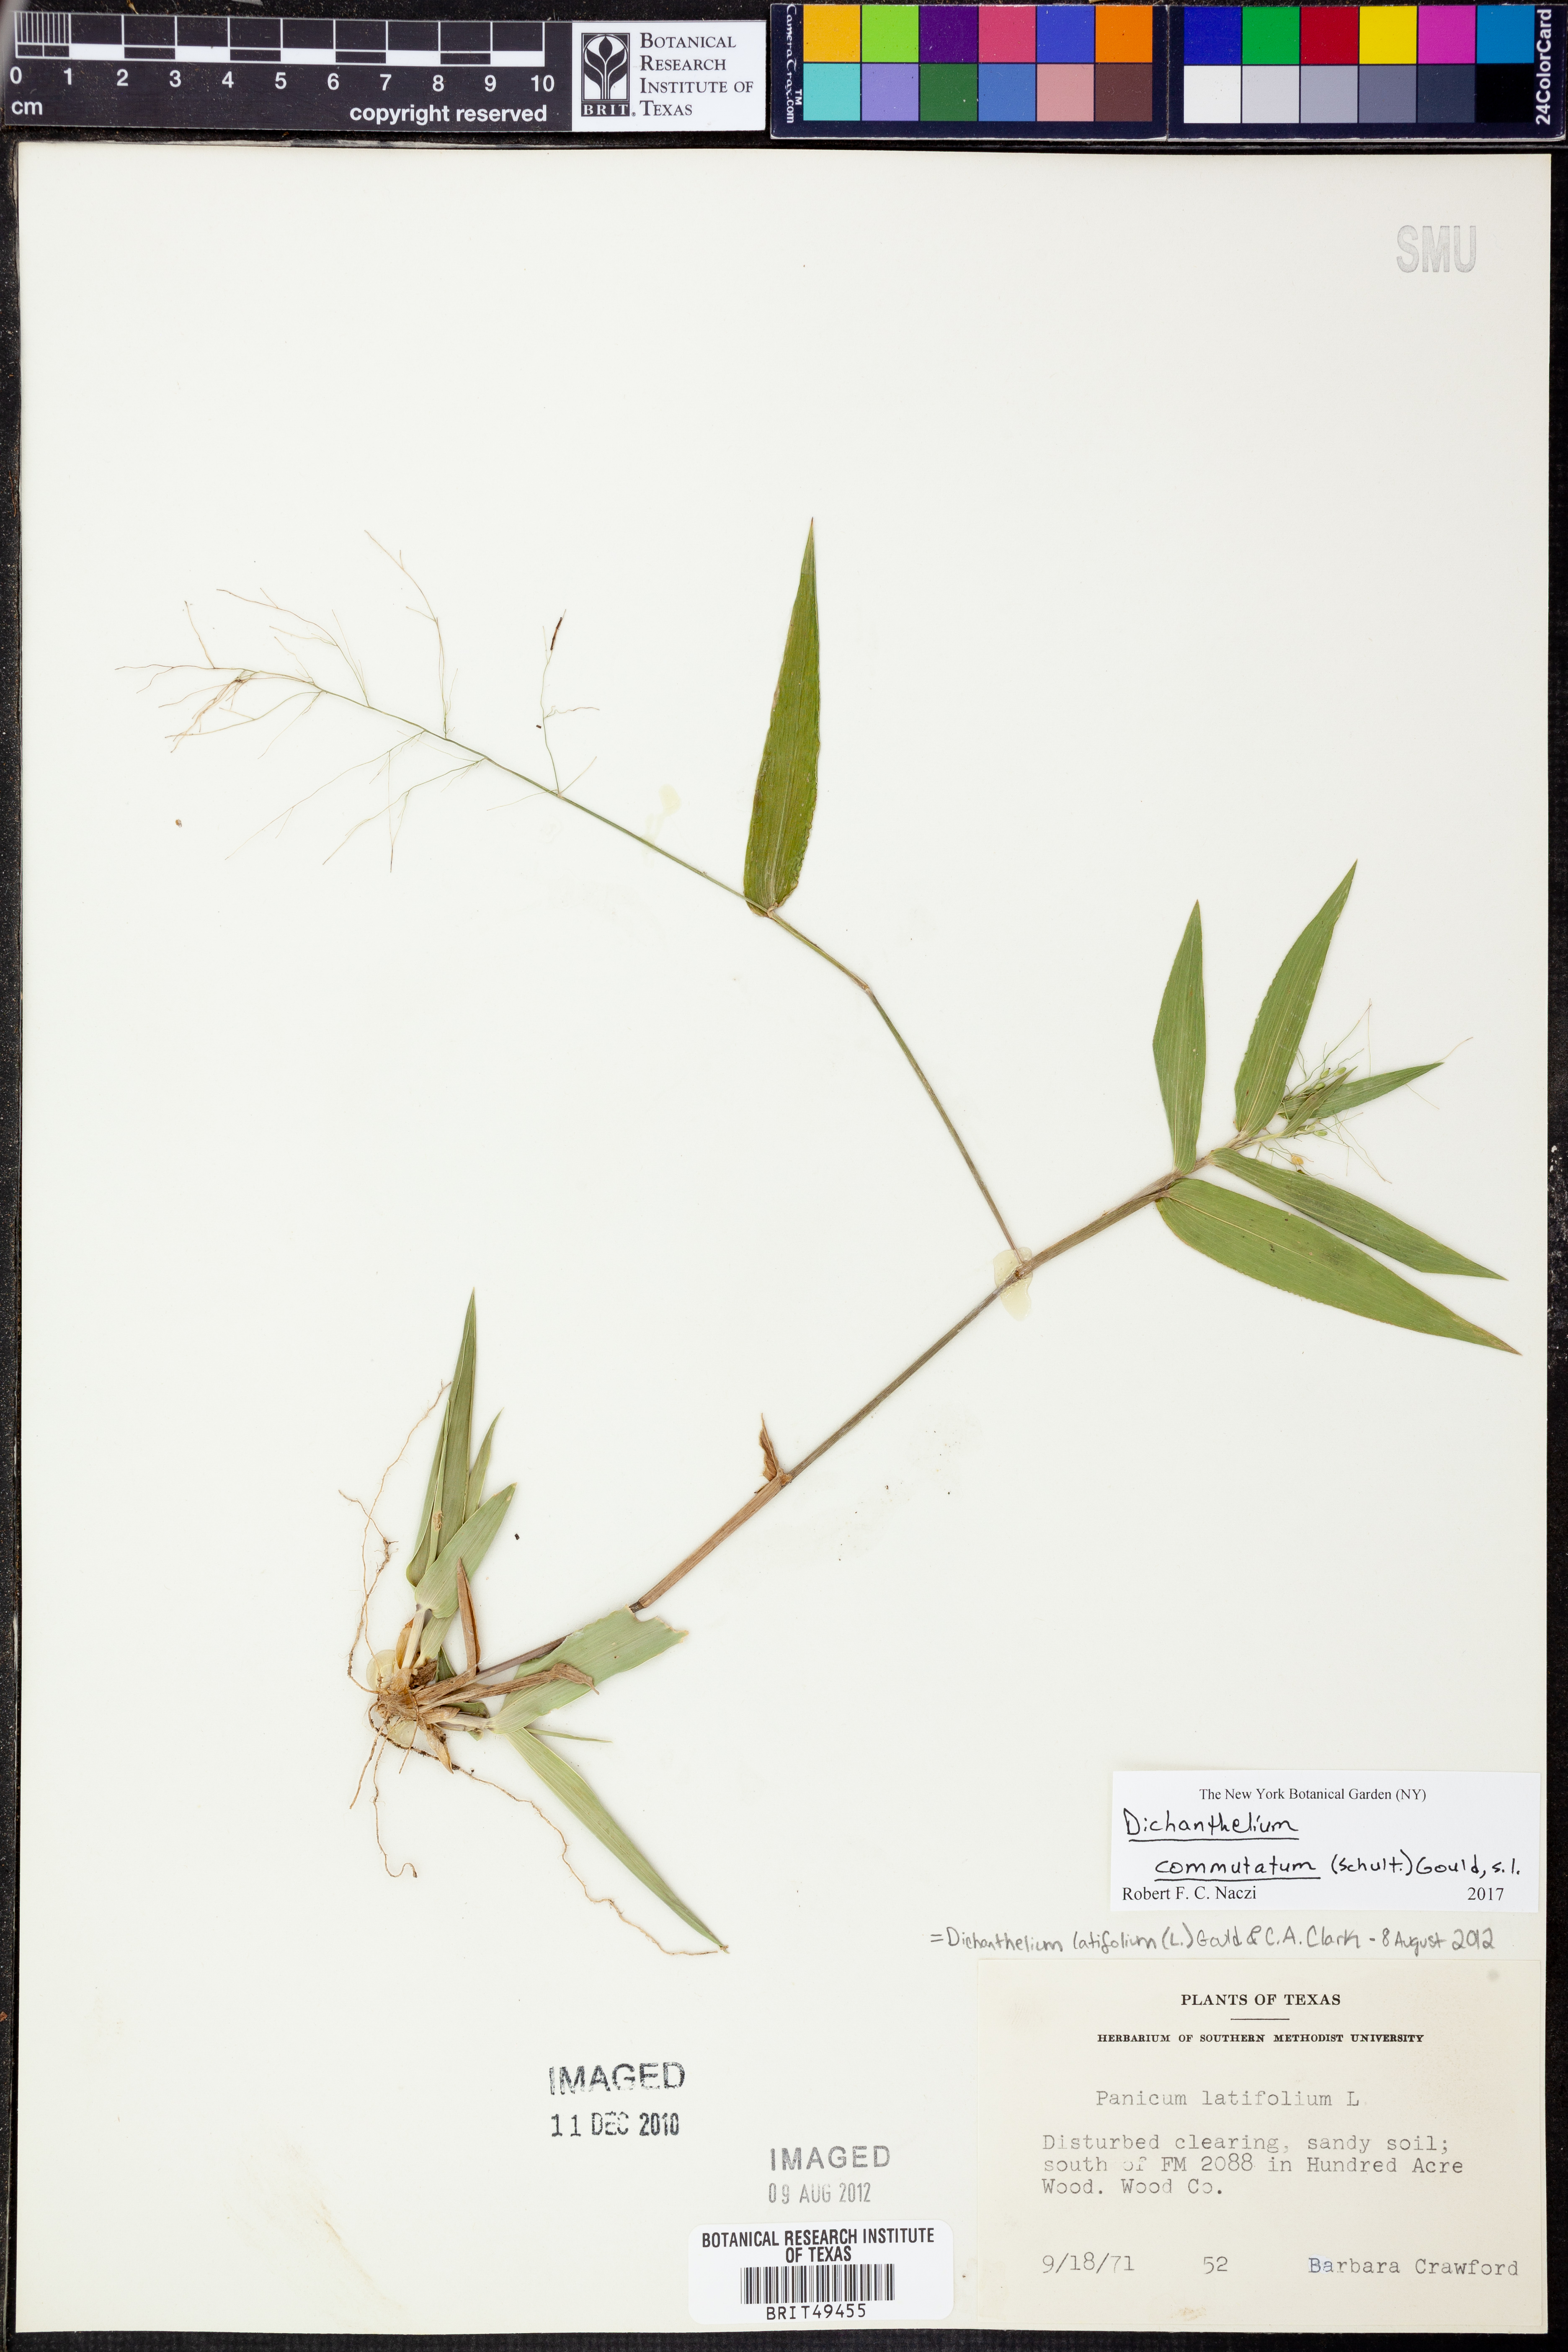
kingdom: Plantae
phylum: Tracheophyta
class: Liliopsida
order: Poales
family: Poaceae
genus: Dichanthelium
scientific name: Dichanthelium commutatum
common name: Variable witchgrass
